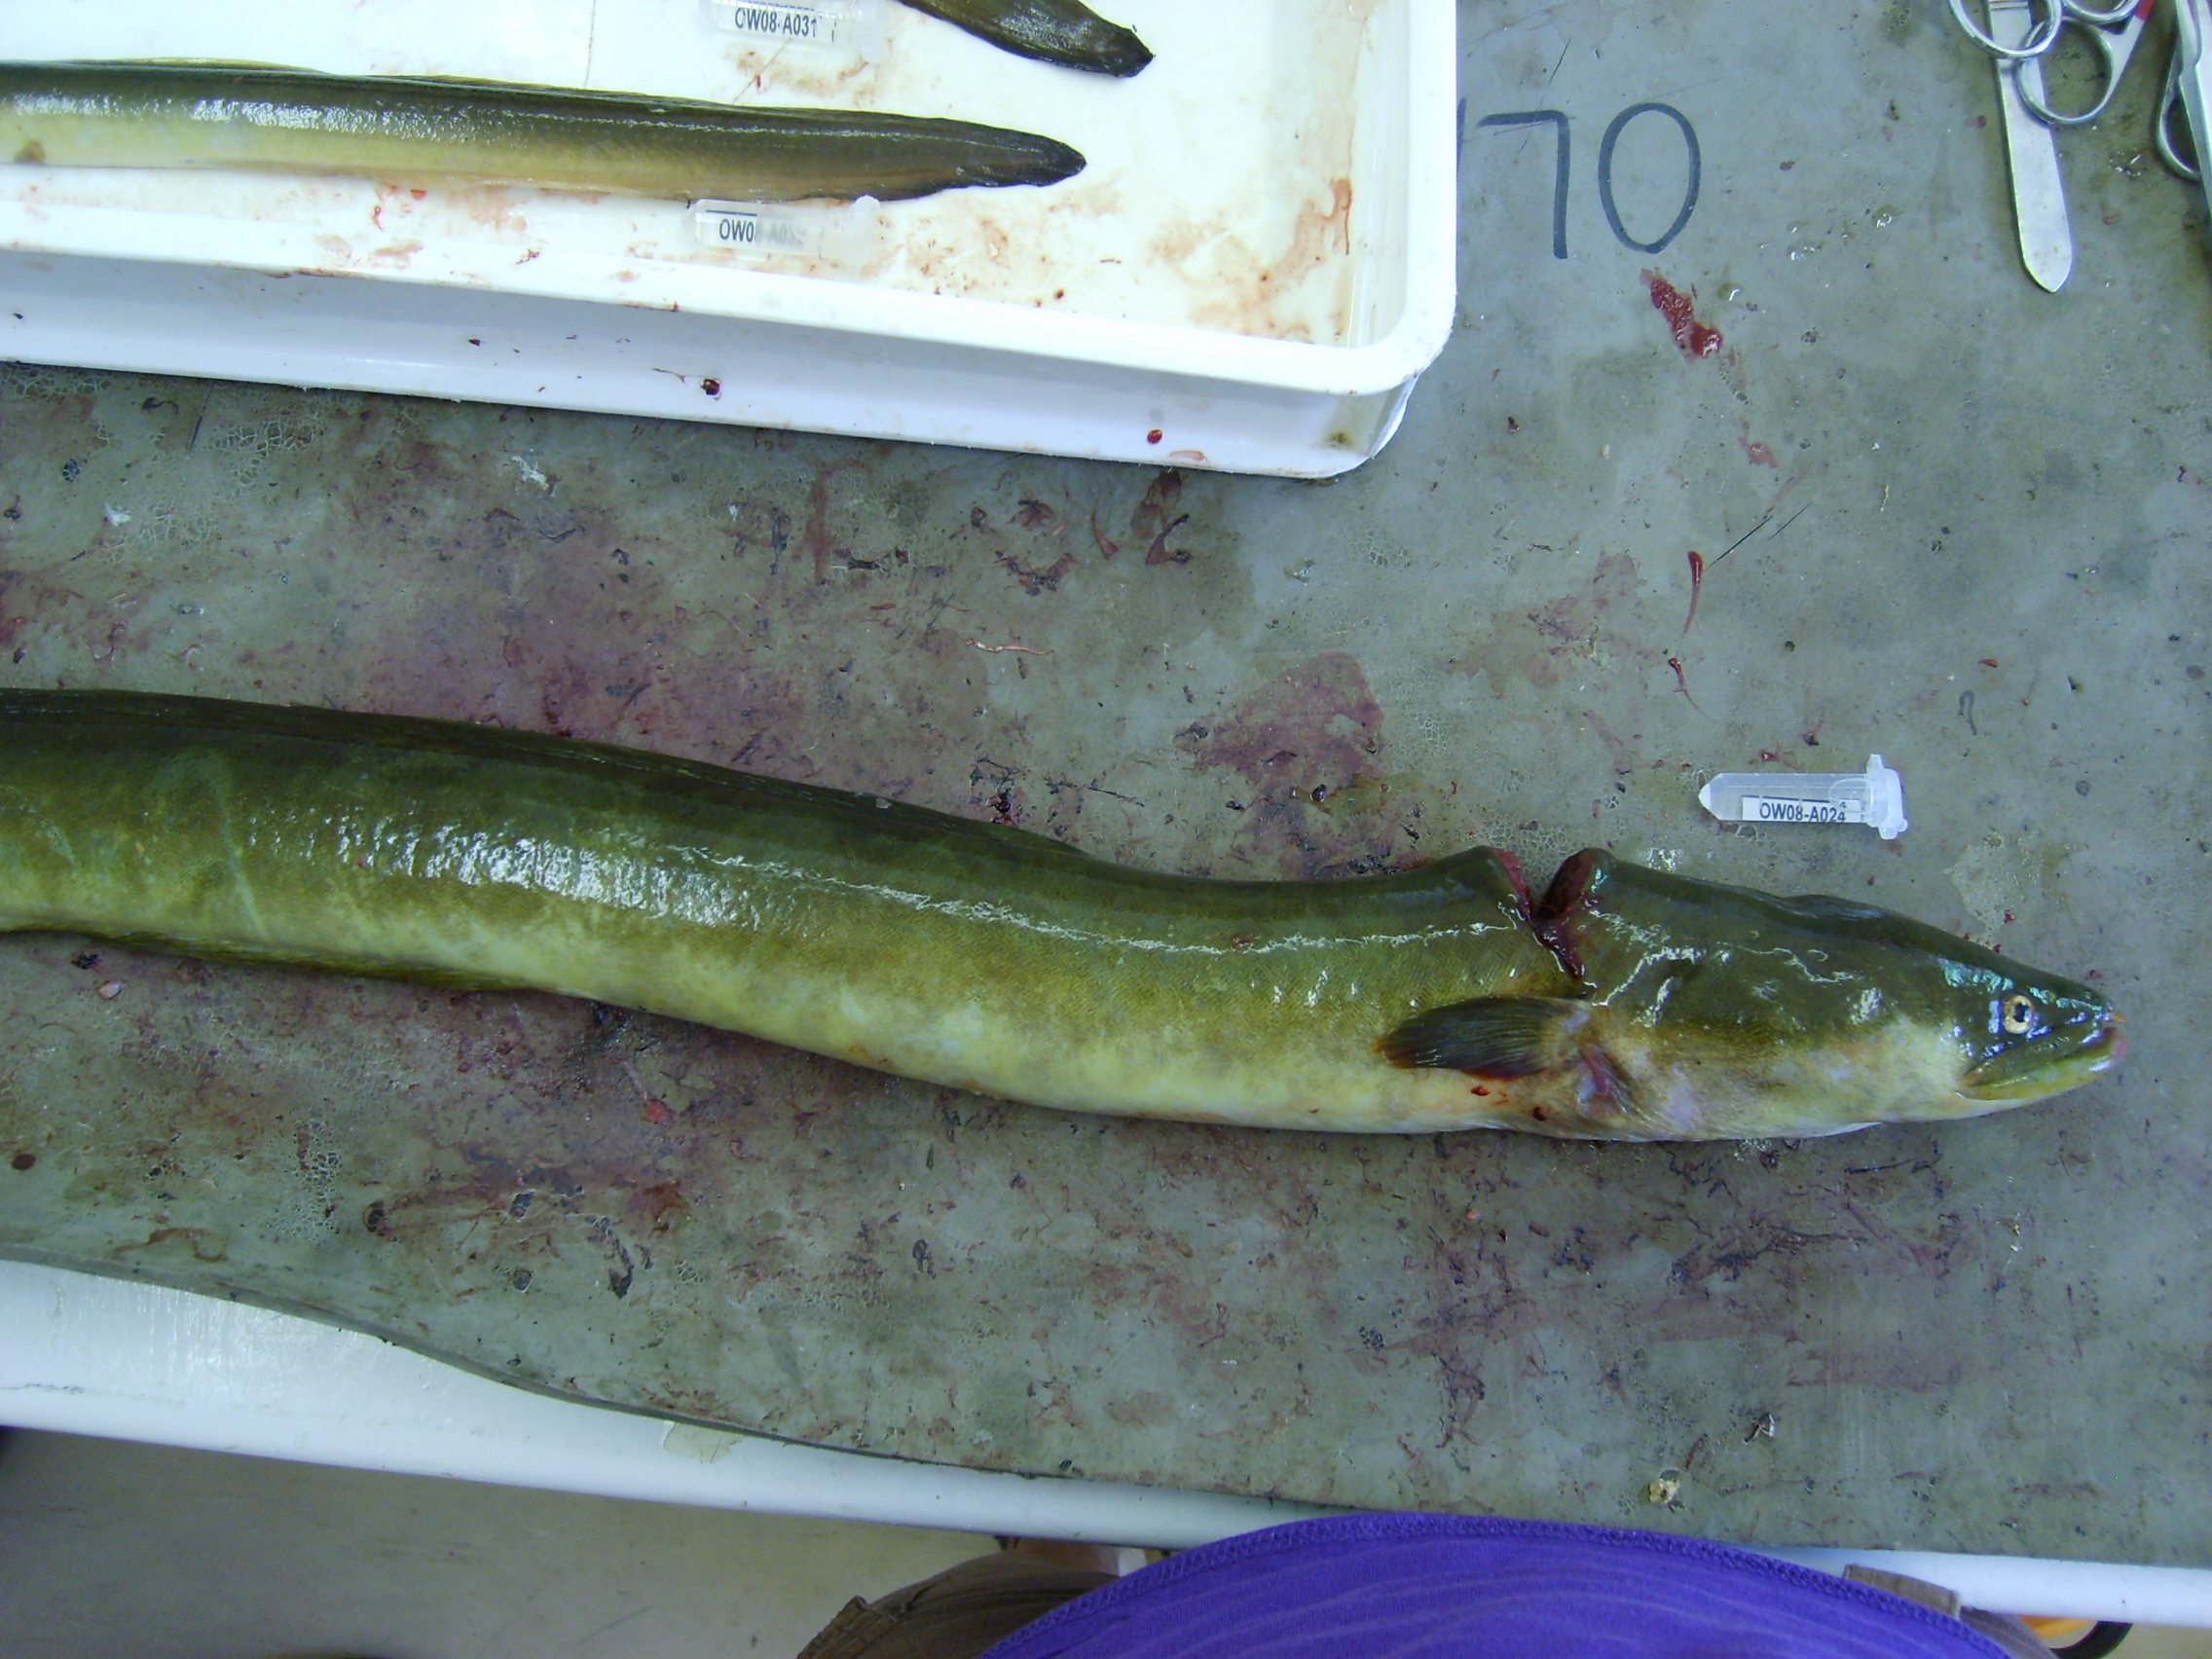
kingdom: Animalia
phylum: Chordata
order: Anguilliformes
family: Anguillidae
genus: Anguilla
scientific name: Anguilla mossambica
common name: African longfin eel
